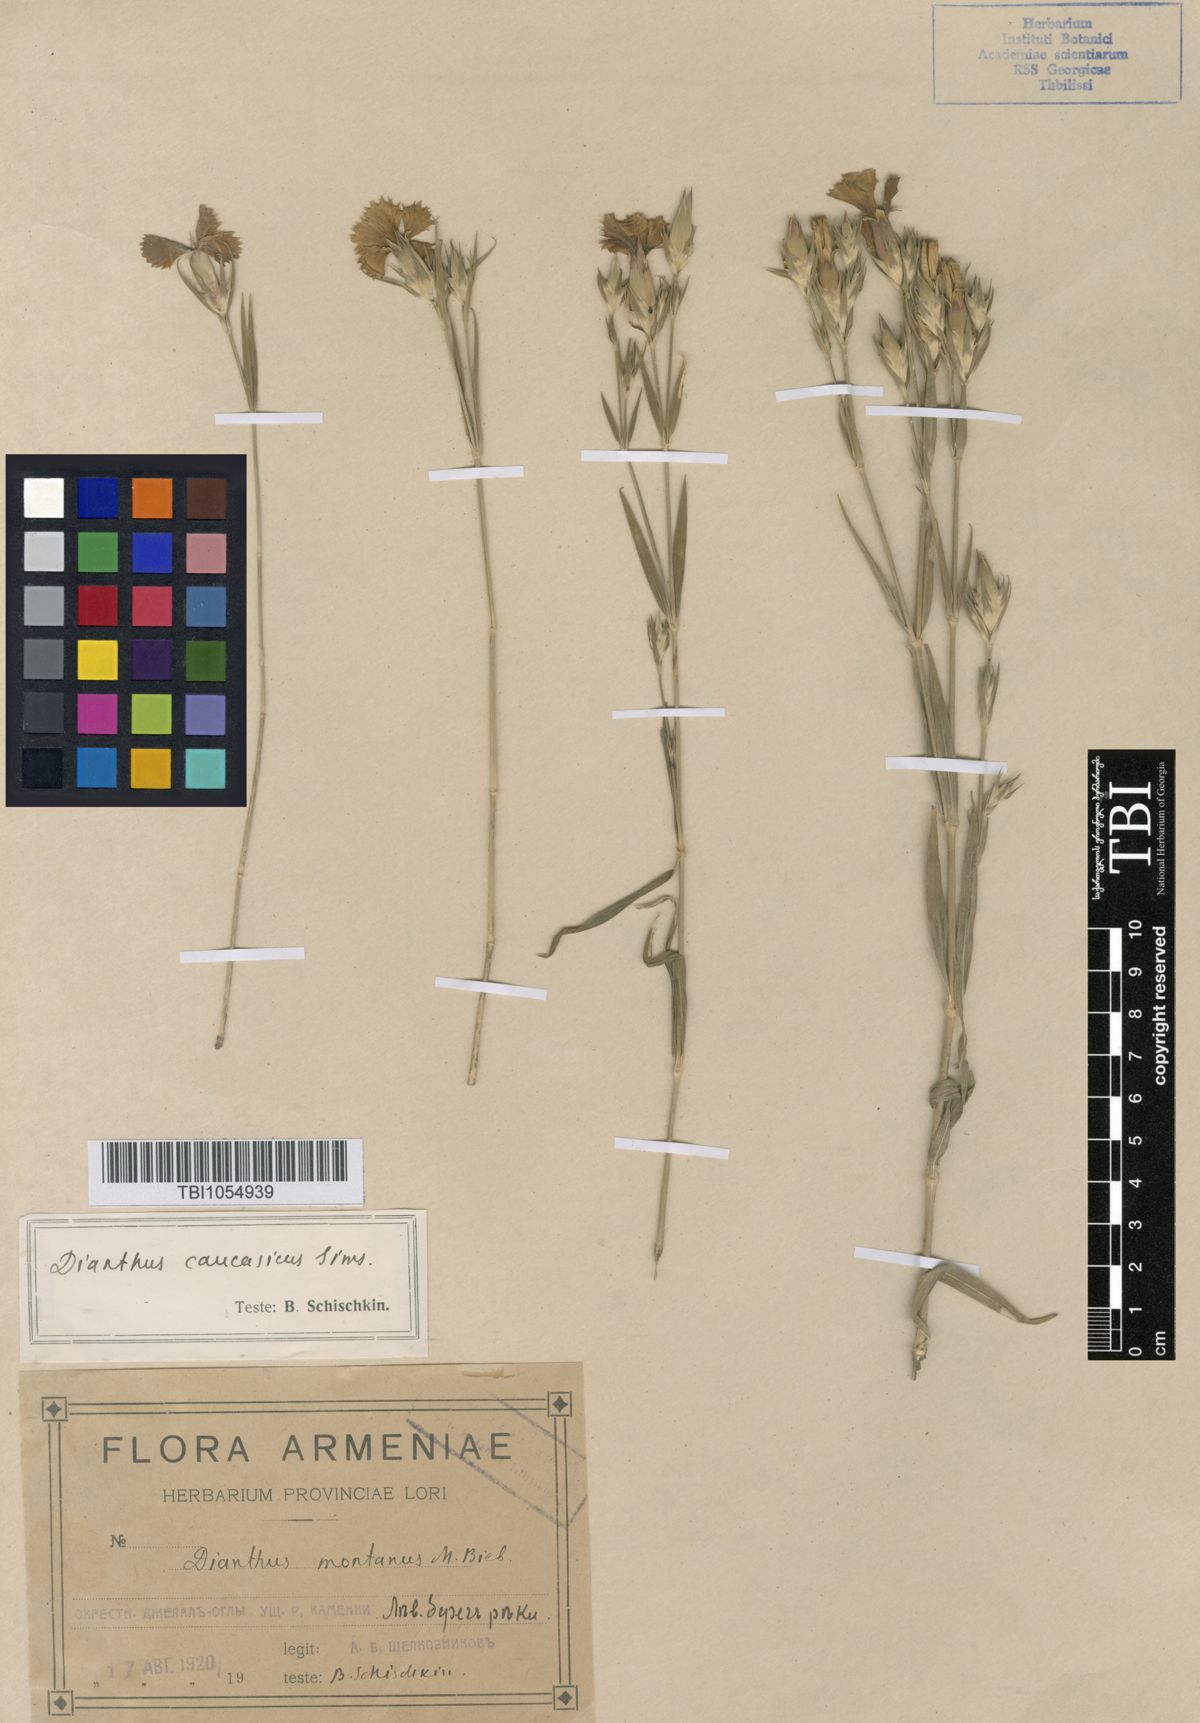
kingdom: Plantae
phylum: Tracheophyta
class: Magnoliopsida
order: Caryophyllales
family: Caryophyllaceae
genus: Dianthus
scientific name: Dianthus caucaseus
